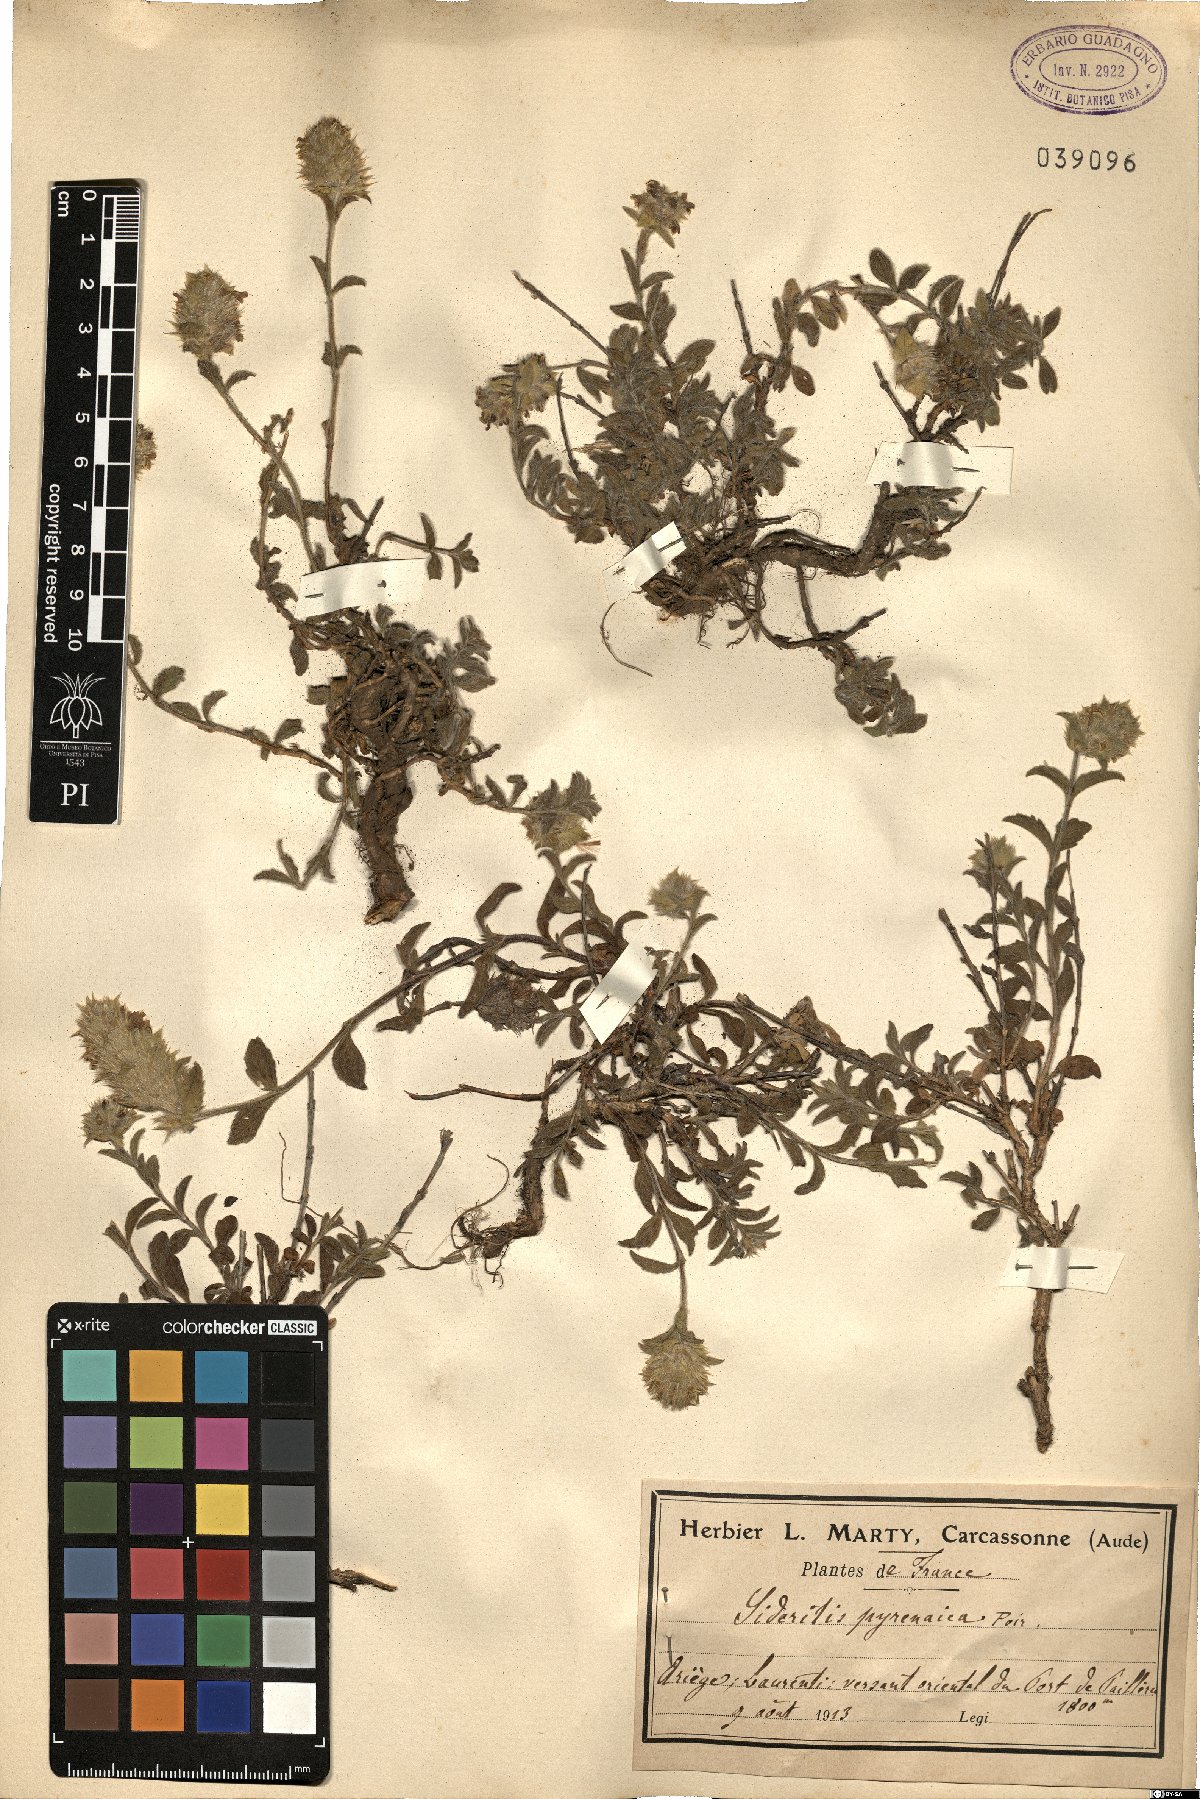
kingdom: Plantae
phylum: Tracheophyta
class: Magnoliopsida
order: Lamiales
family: Lamiaceae
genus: Sideritis
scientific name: Sideritis hyssopifolia
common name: Mountain tea
